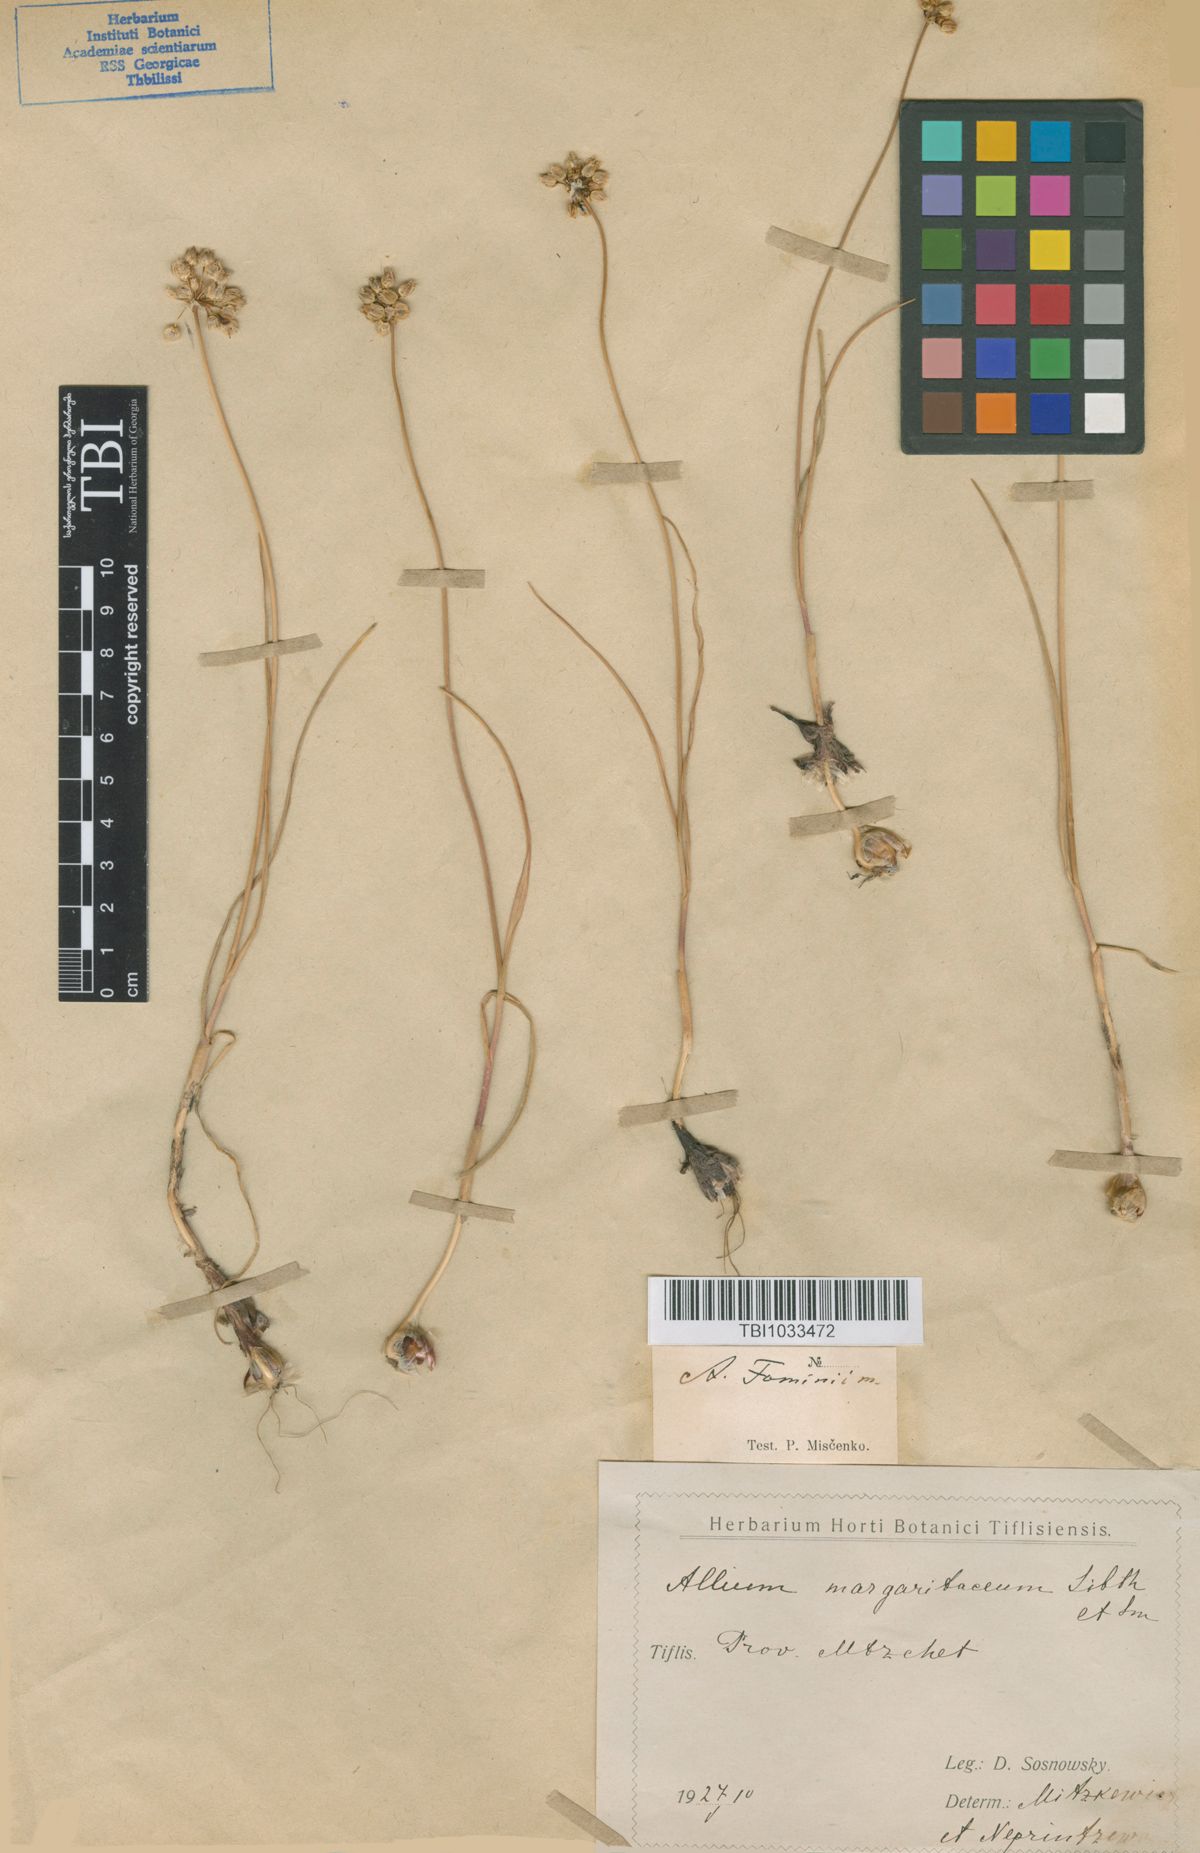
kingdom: Plantae
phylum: Tracheophyta
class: Liliopsida
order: Asparagales
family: Amaryllidaceae
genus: Allium
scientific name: Allium gramineum
